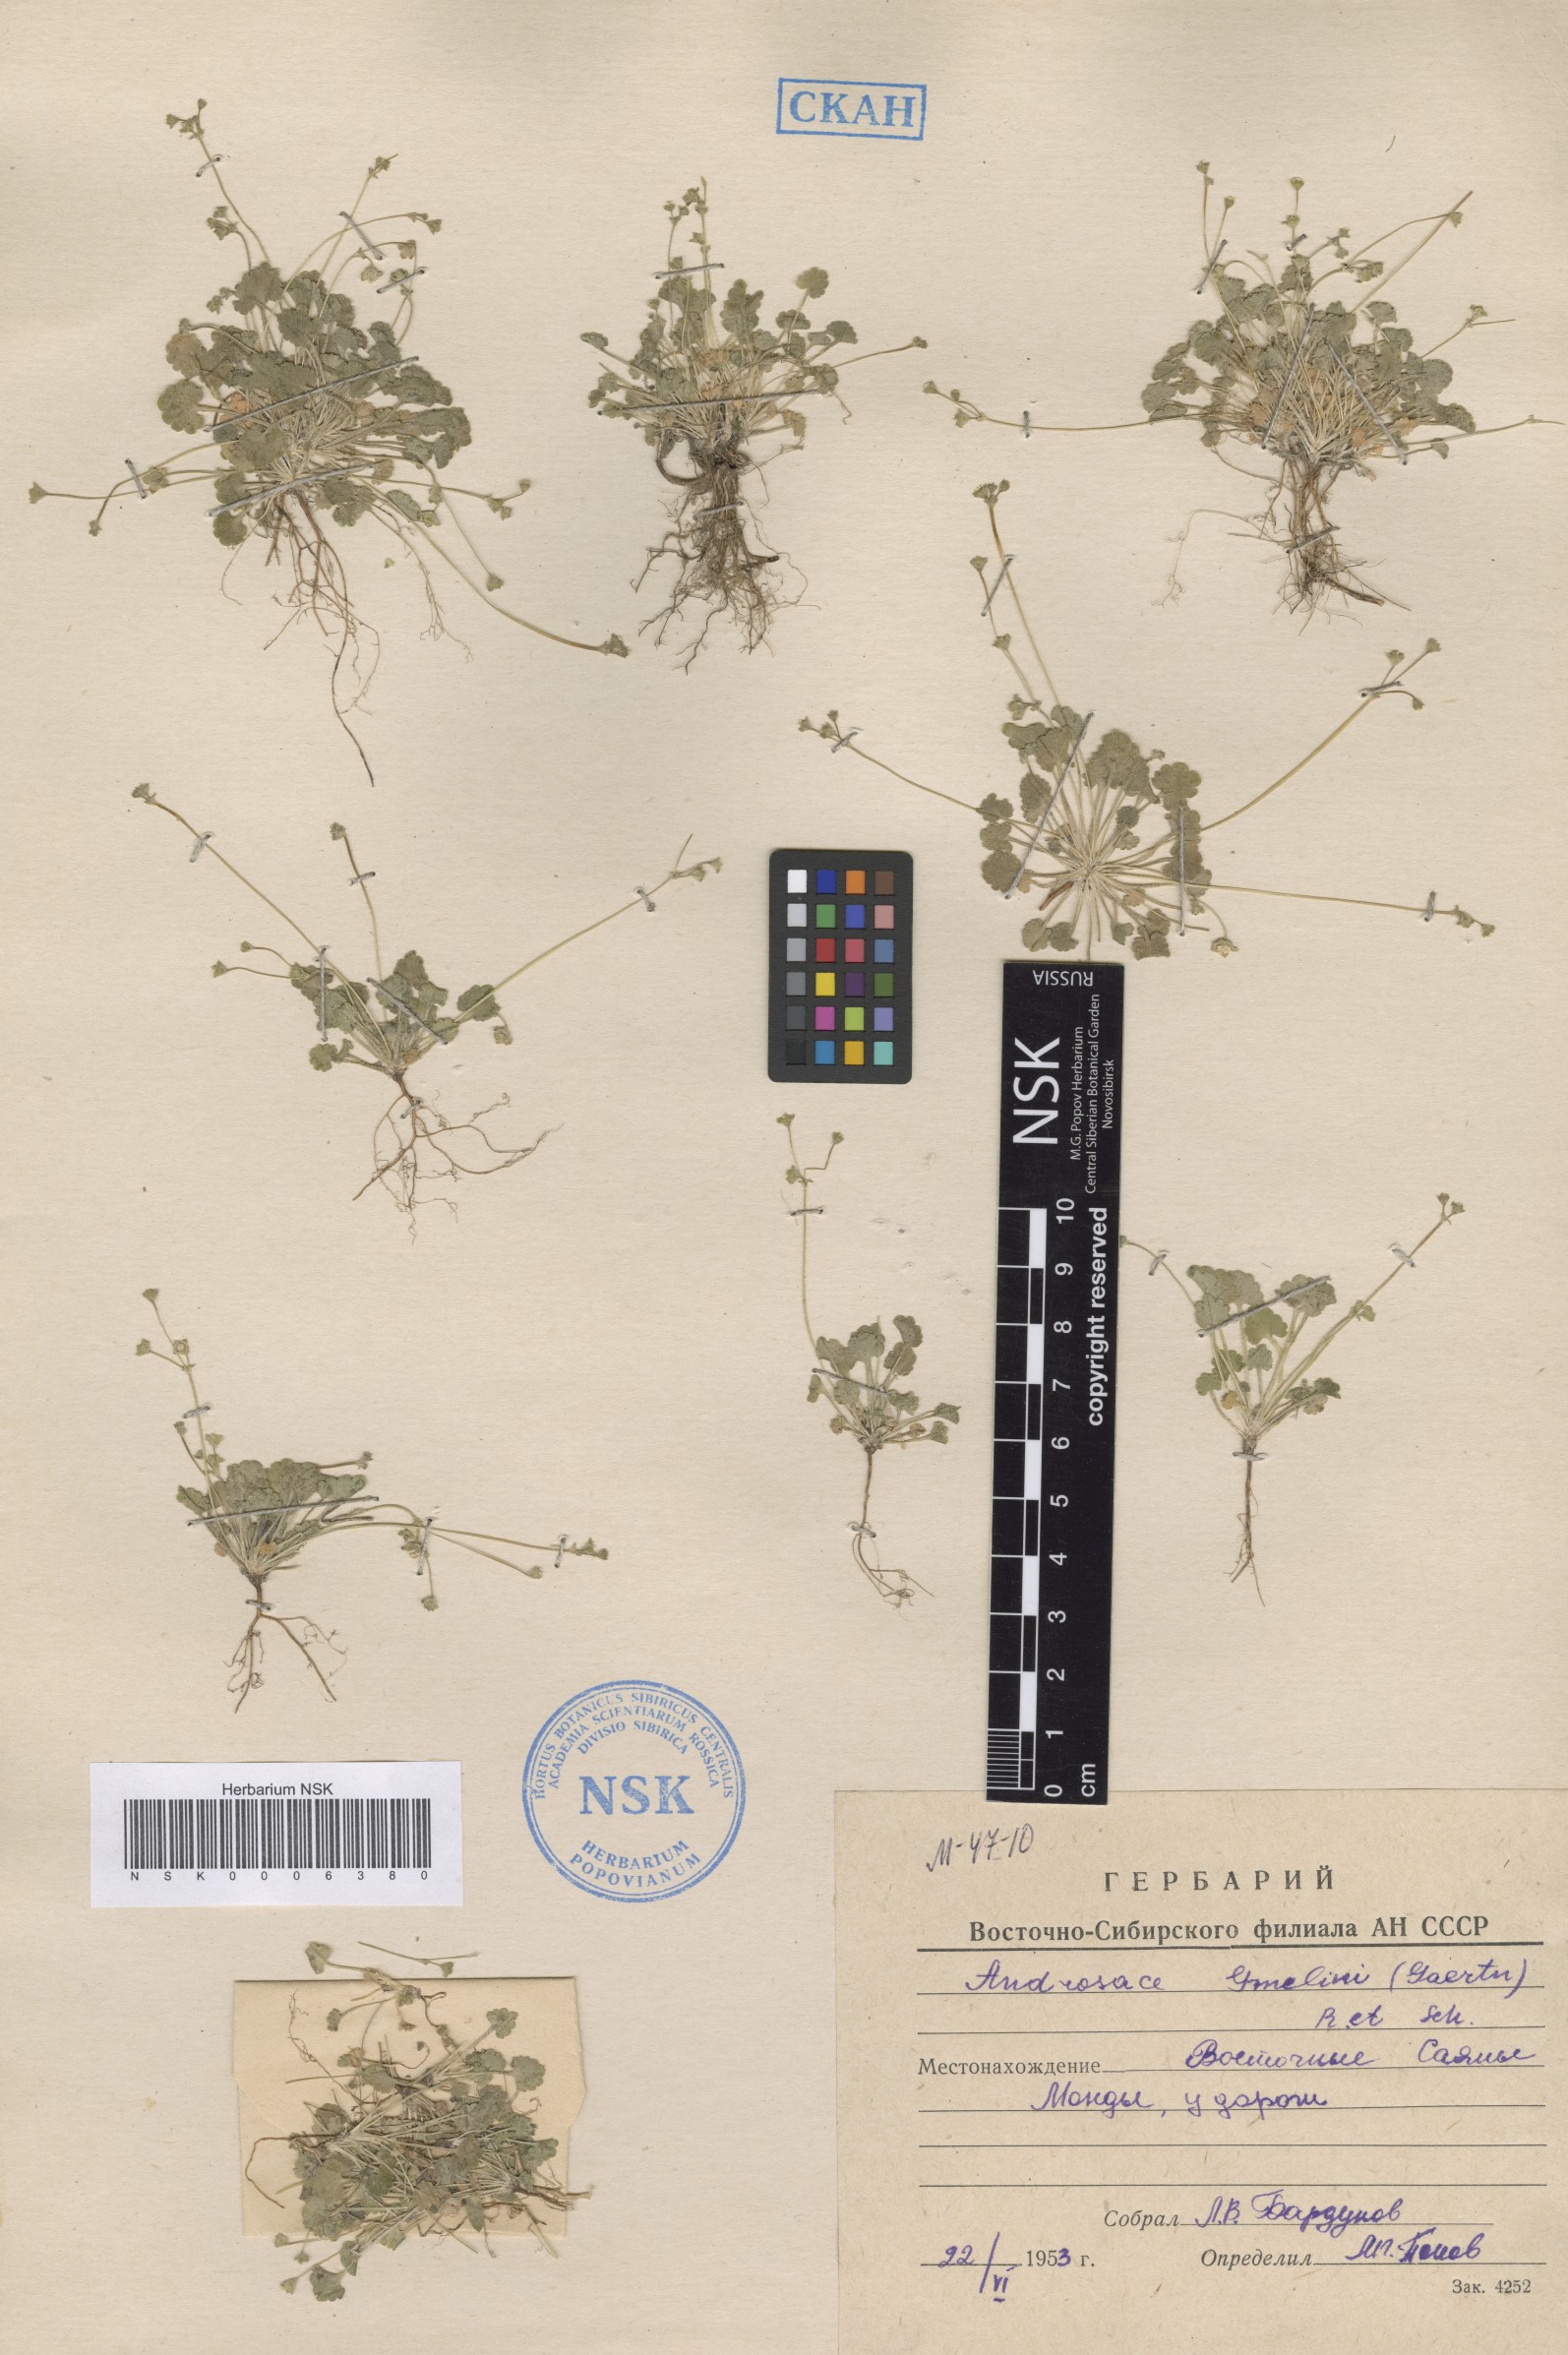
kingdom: Plantae
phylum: Tracheophyta
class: Magnoliopsida
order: Ericales
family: Primulaceae
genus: Androsace
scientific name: Androsace gmelinii
